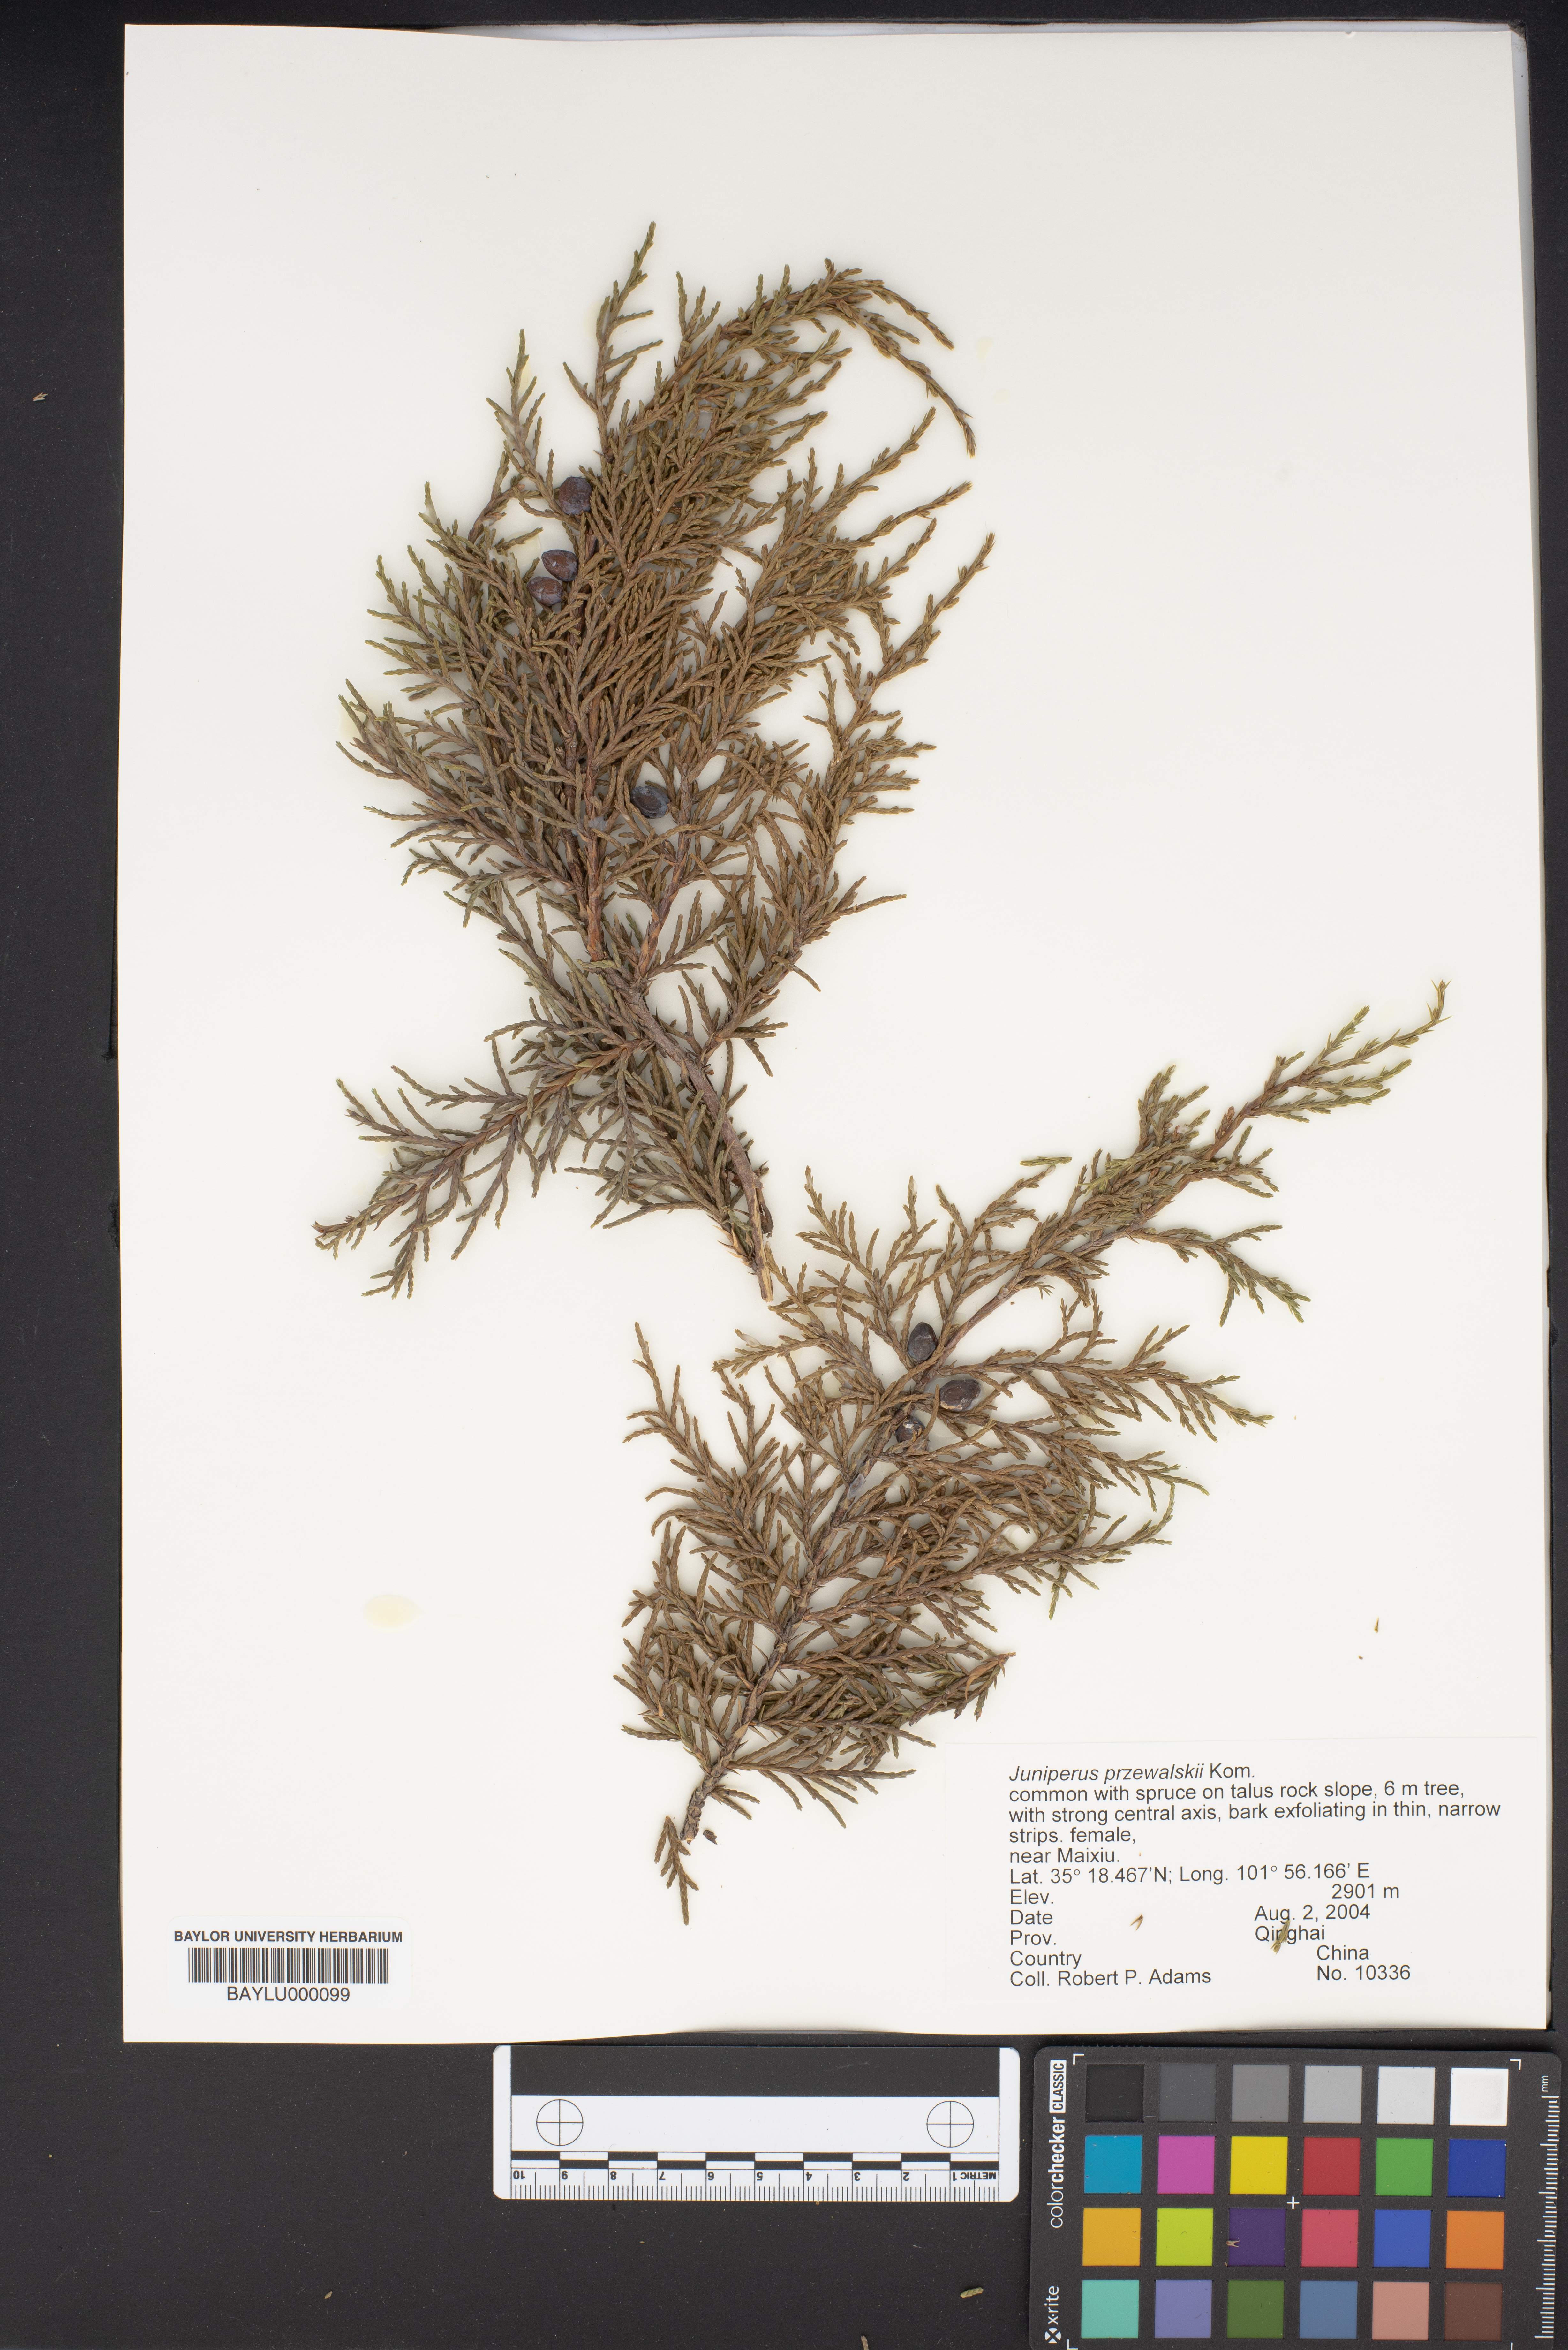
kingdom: Plantae
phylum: Tracheophyta
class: Pinopsida
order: Pinales
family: Cupressaceae
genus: Juniperus
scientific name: Juniperus przewalskii
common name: Przewalsi juniper
